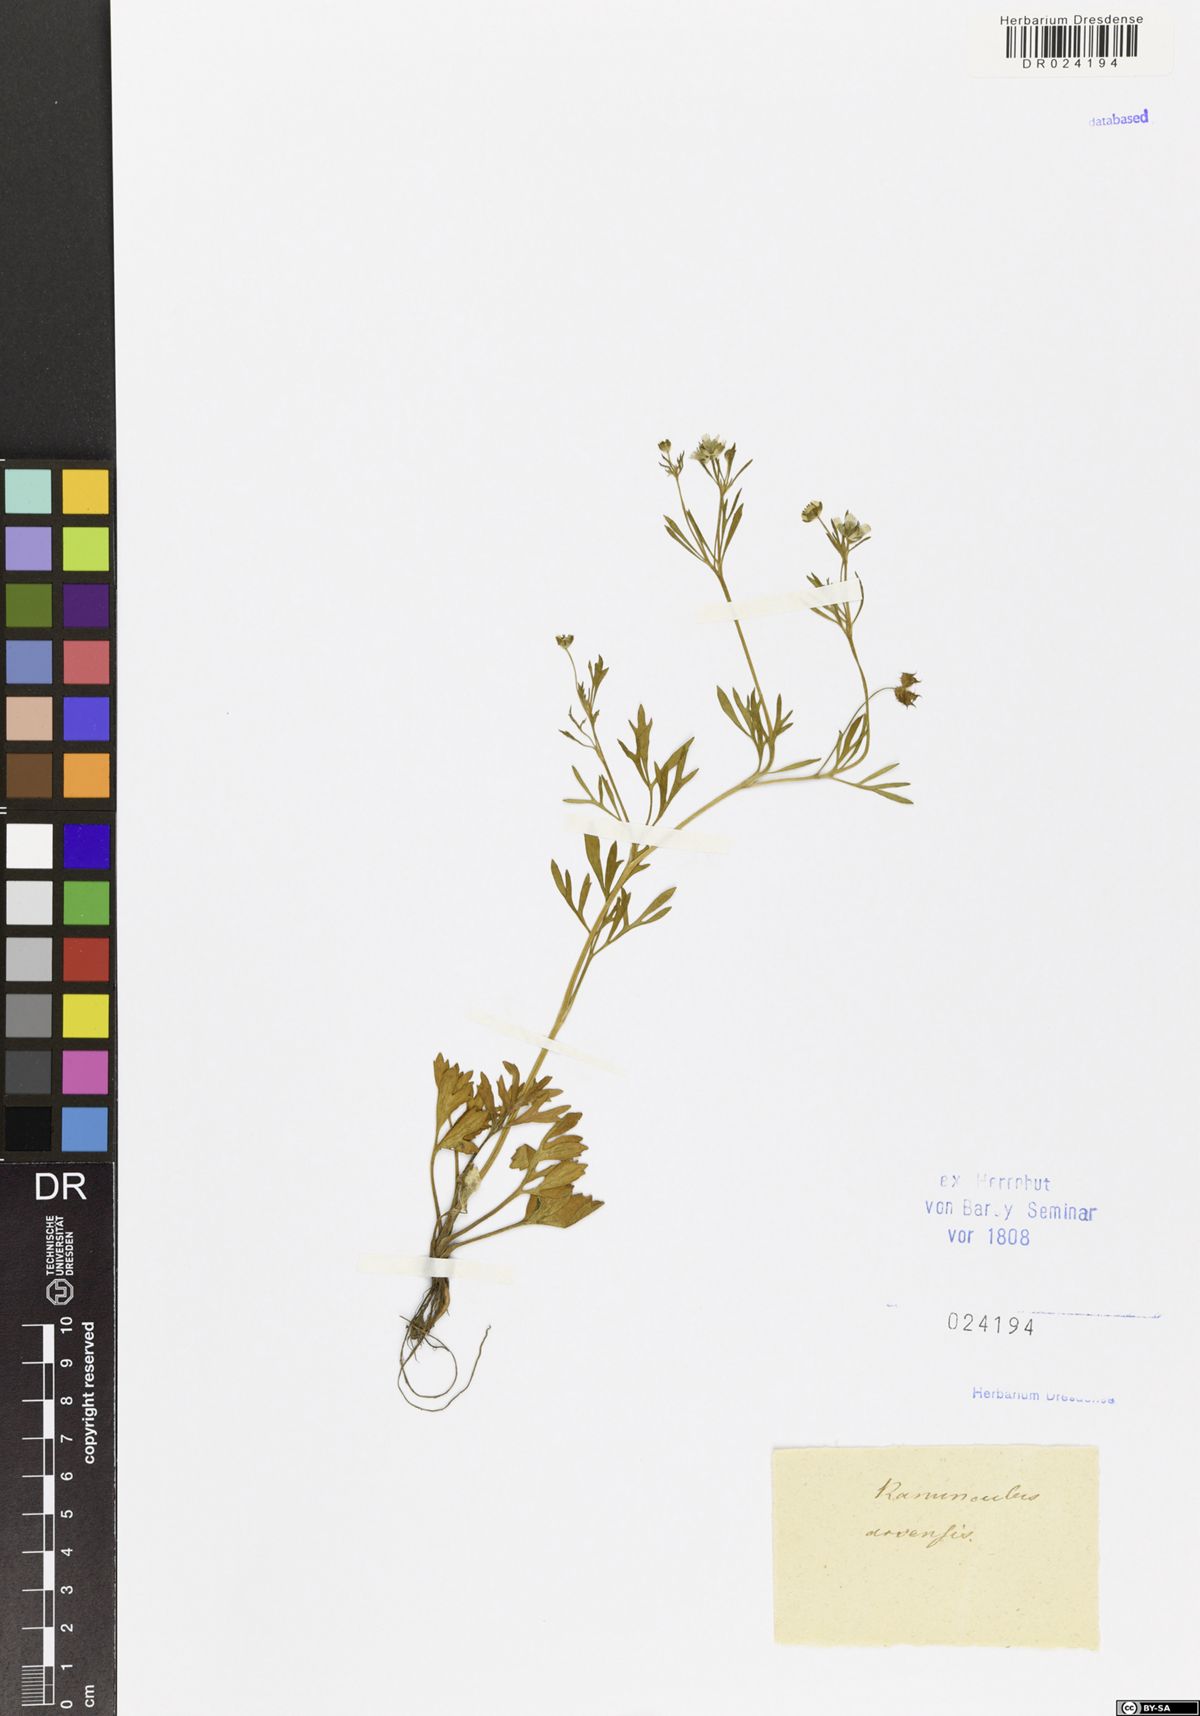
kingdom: Plantae
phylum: Tracheophyta
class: Magnoliopsida
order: Ranunculales
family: Ranunculaceae
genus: Ranunculus
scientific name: Ranunculus arvensis
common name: Corn buttercup
